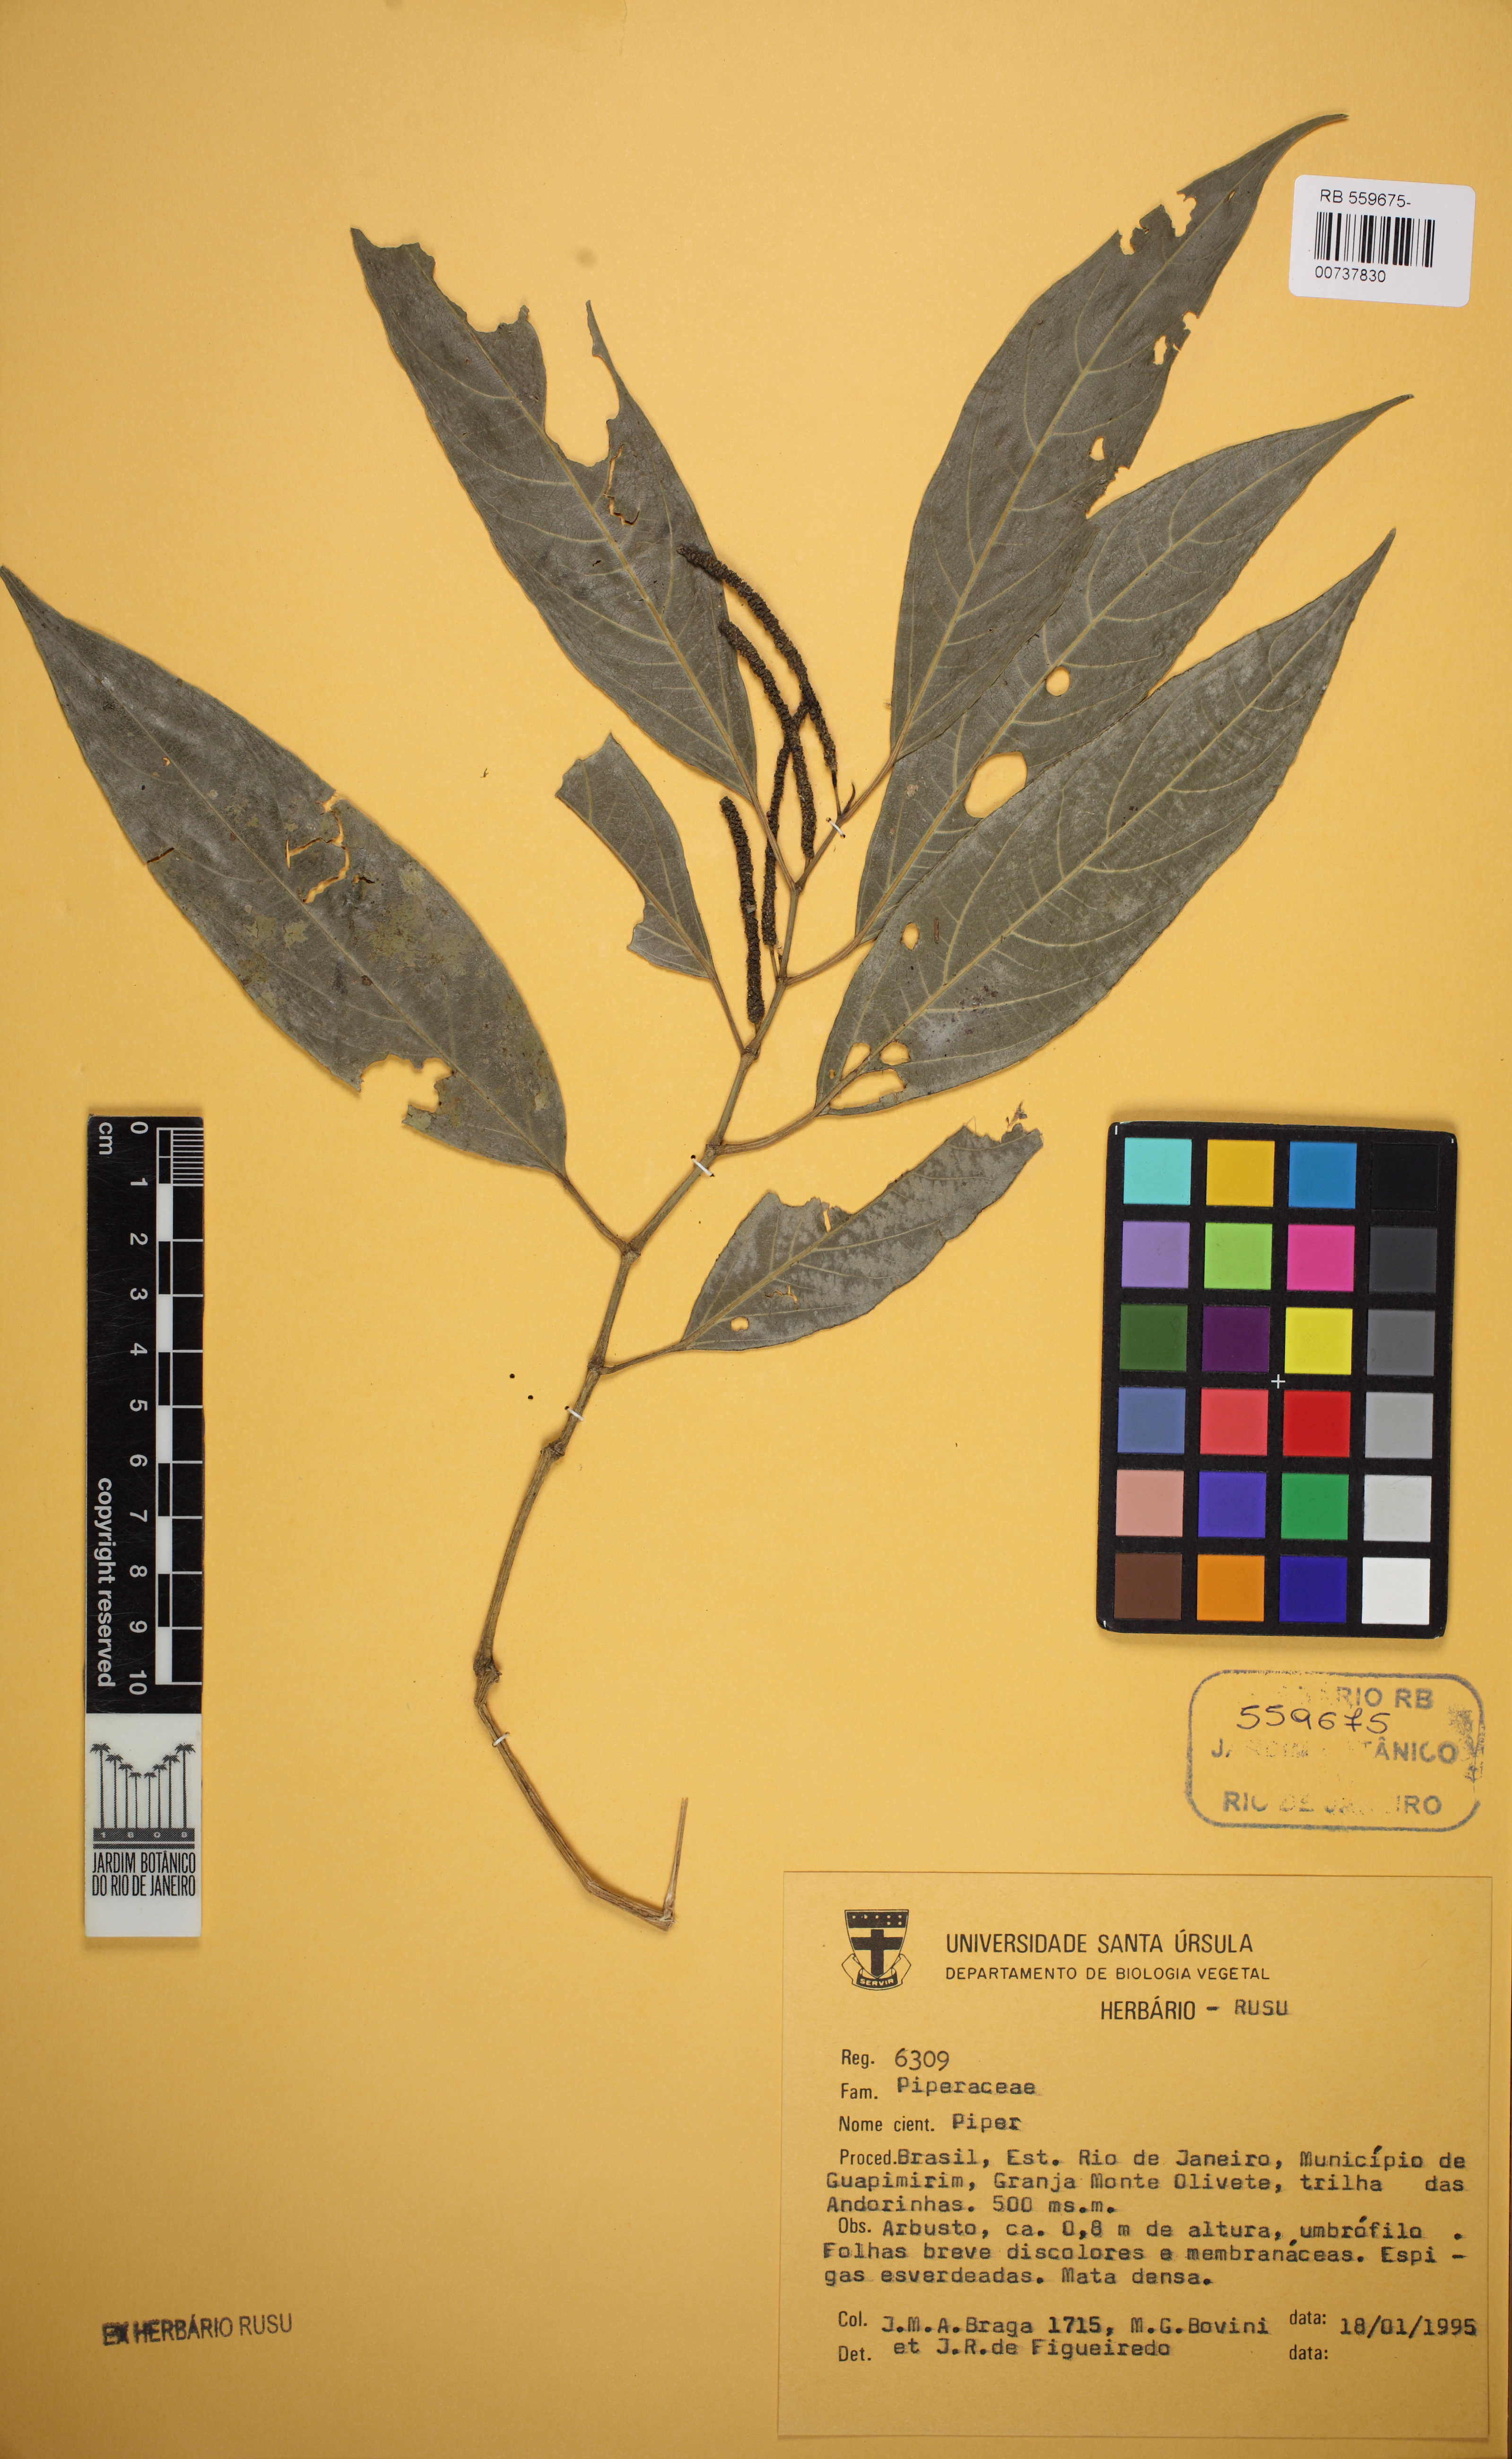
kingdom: Plantae
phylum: Tracheophyta
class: Magnoliopsida
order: Piperales
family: Piperaceae
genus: Piper
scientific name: Piper
